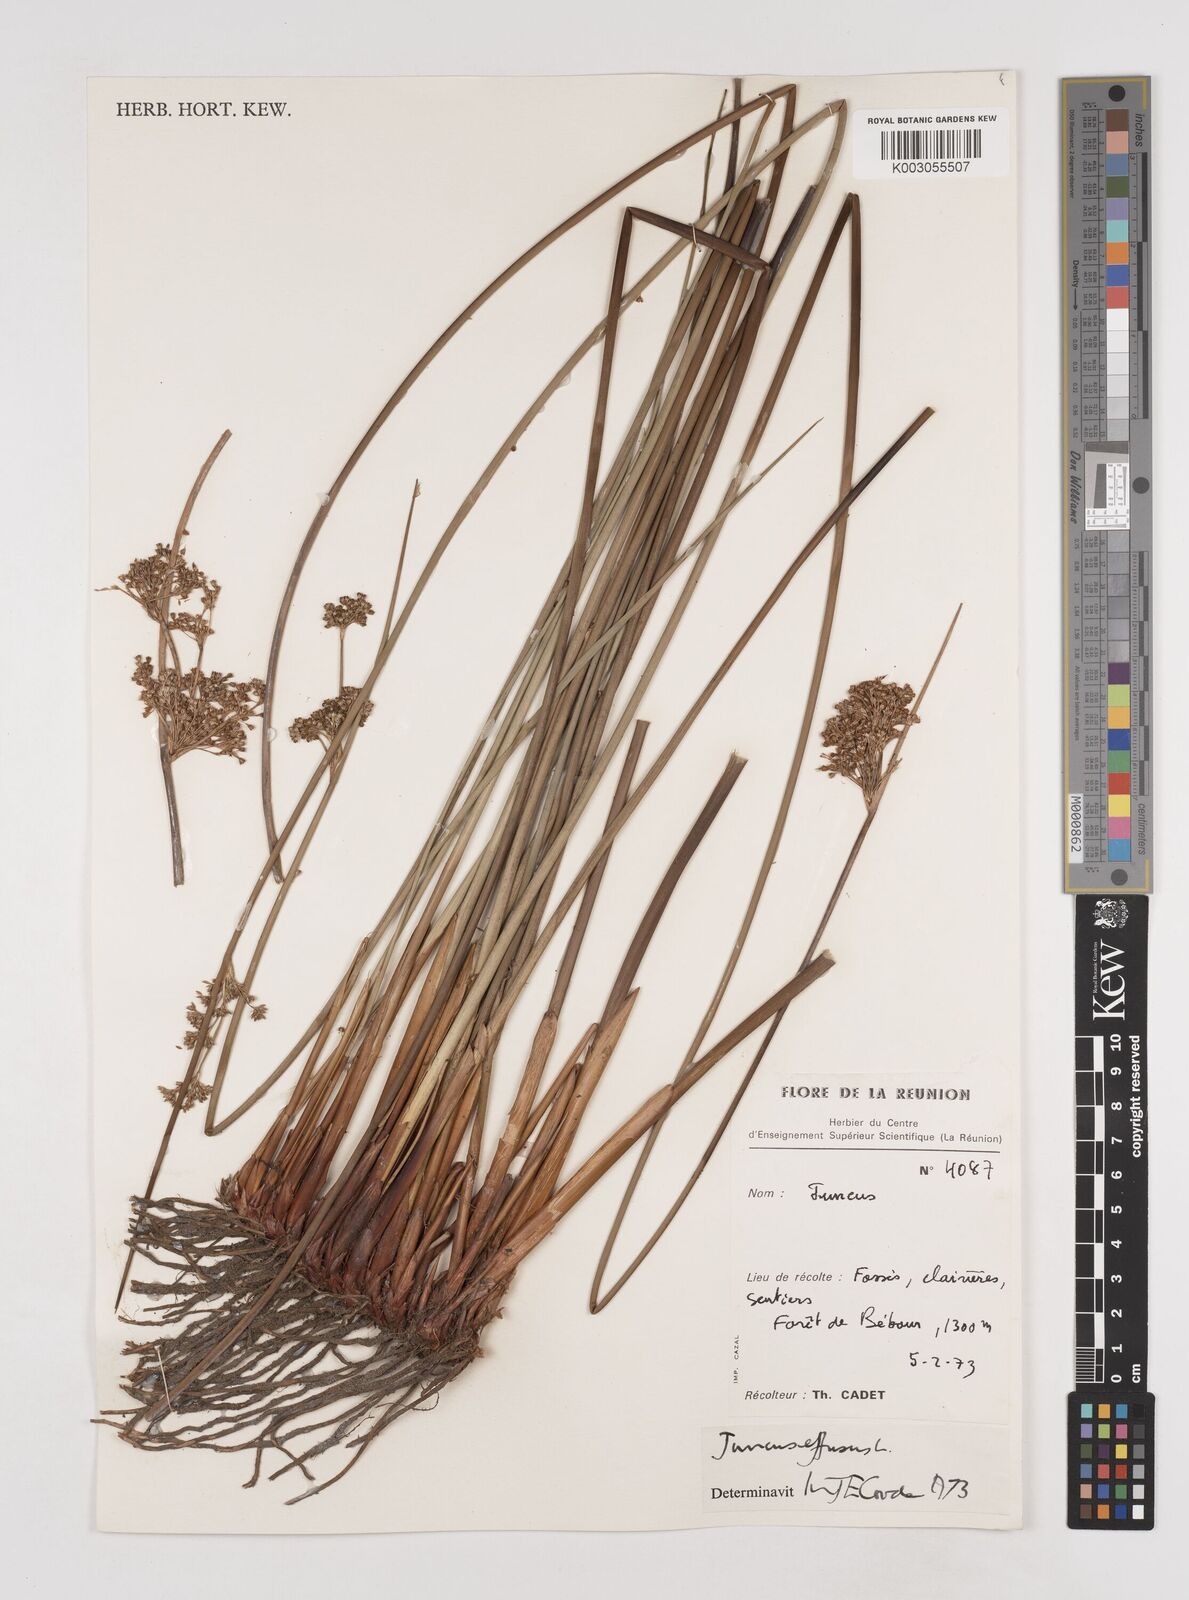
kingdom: Plantae
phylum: Tracheophyta
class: Liliopsida
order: Poales
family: Juncaceae
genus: Juncus
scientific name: Juncus effusus
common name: Soft rush
